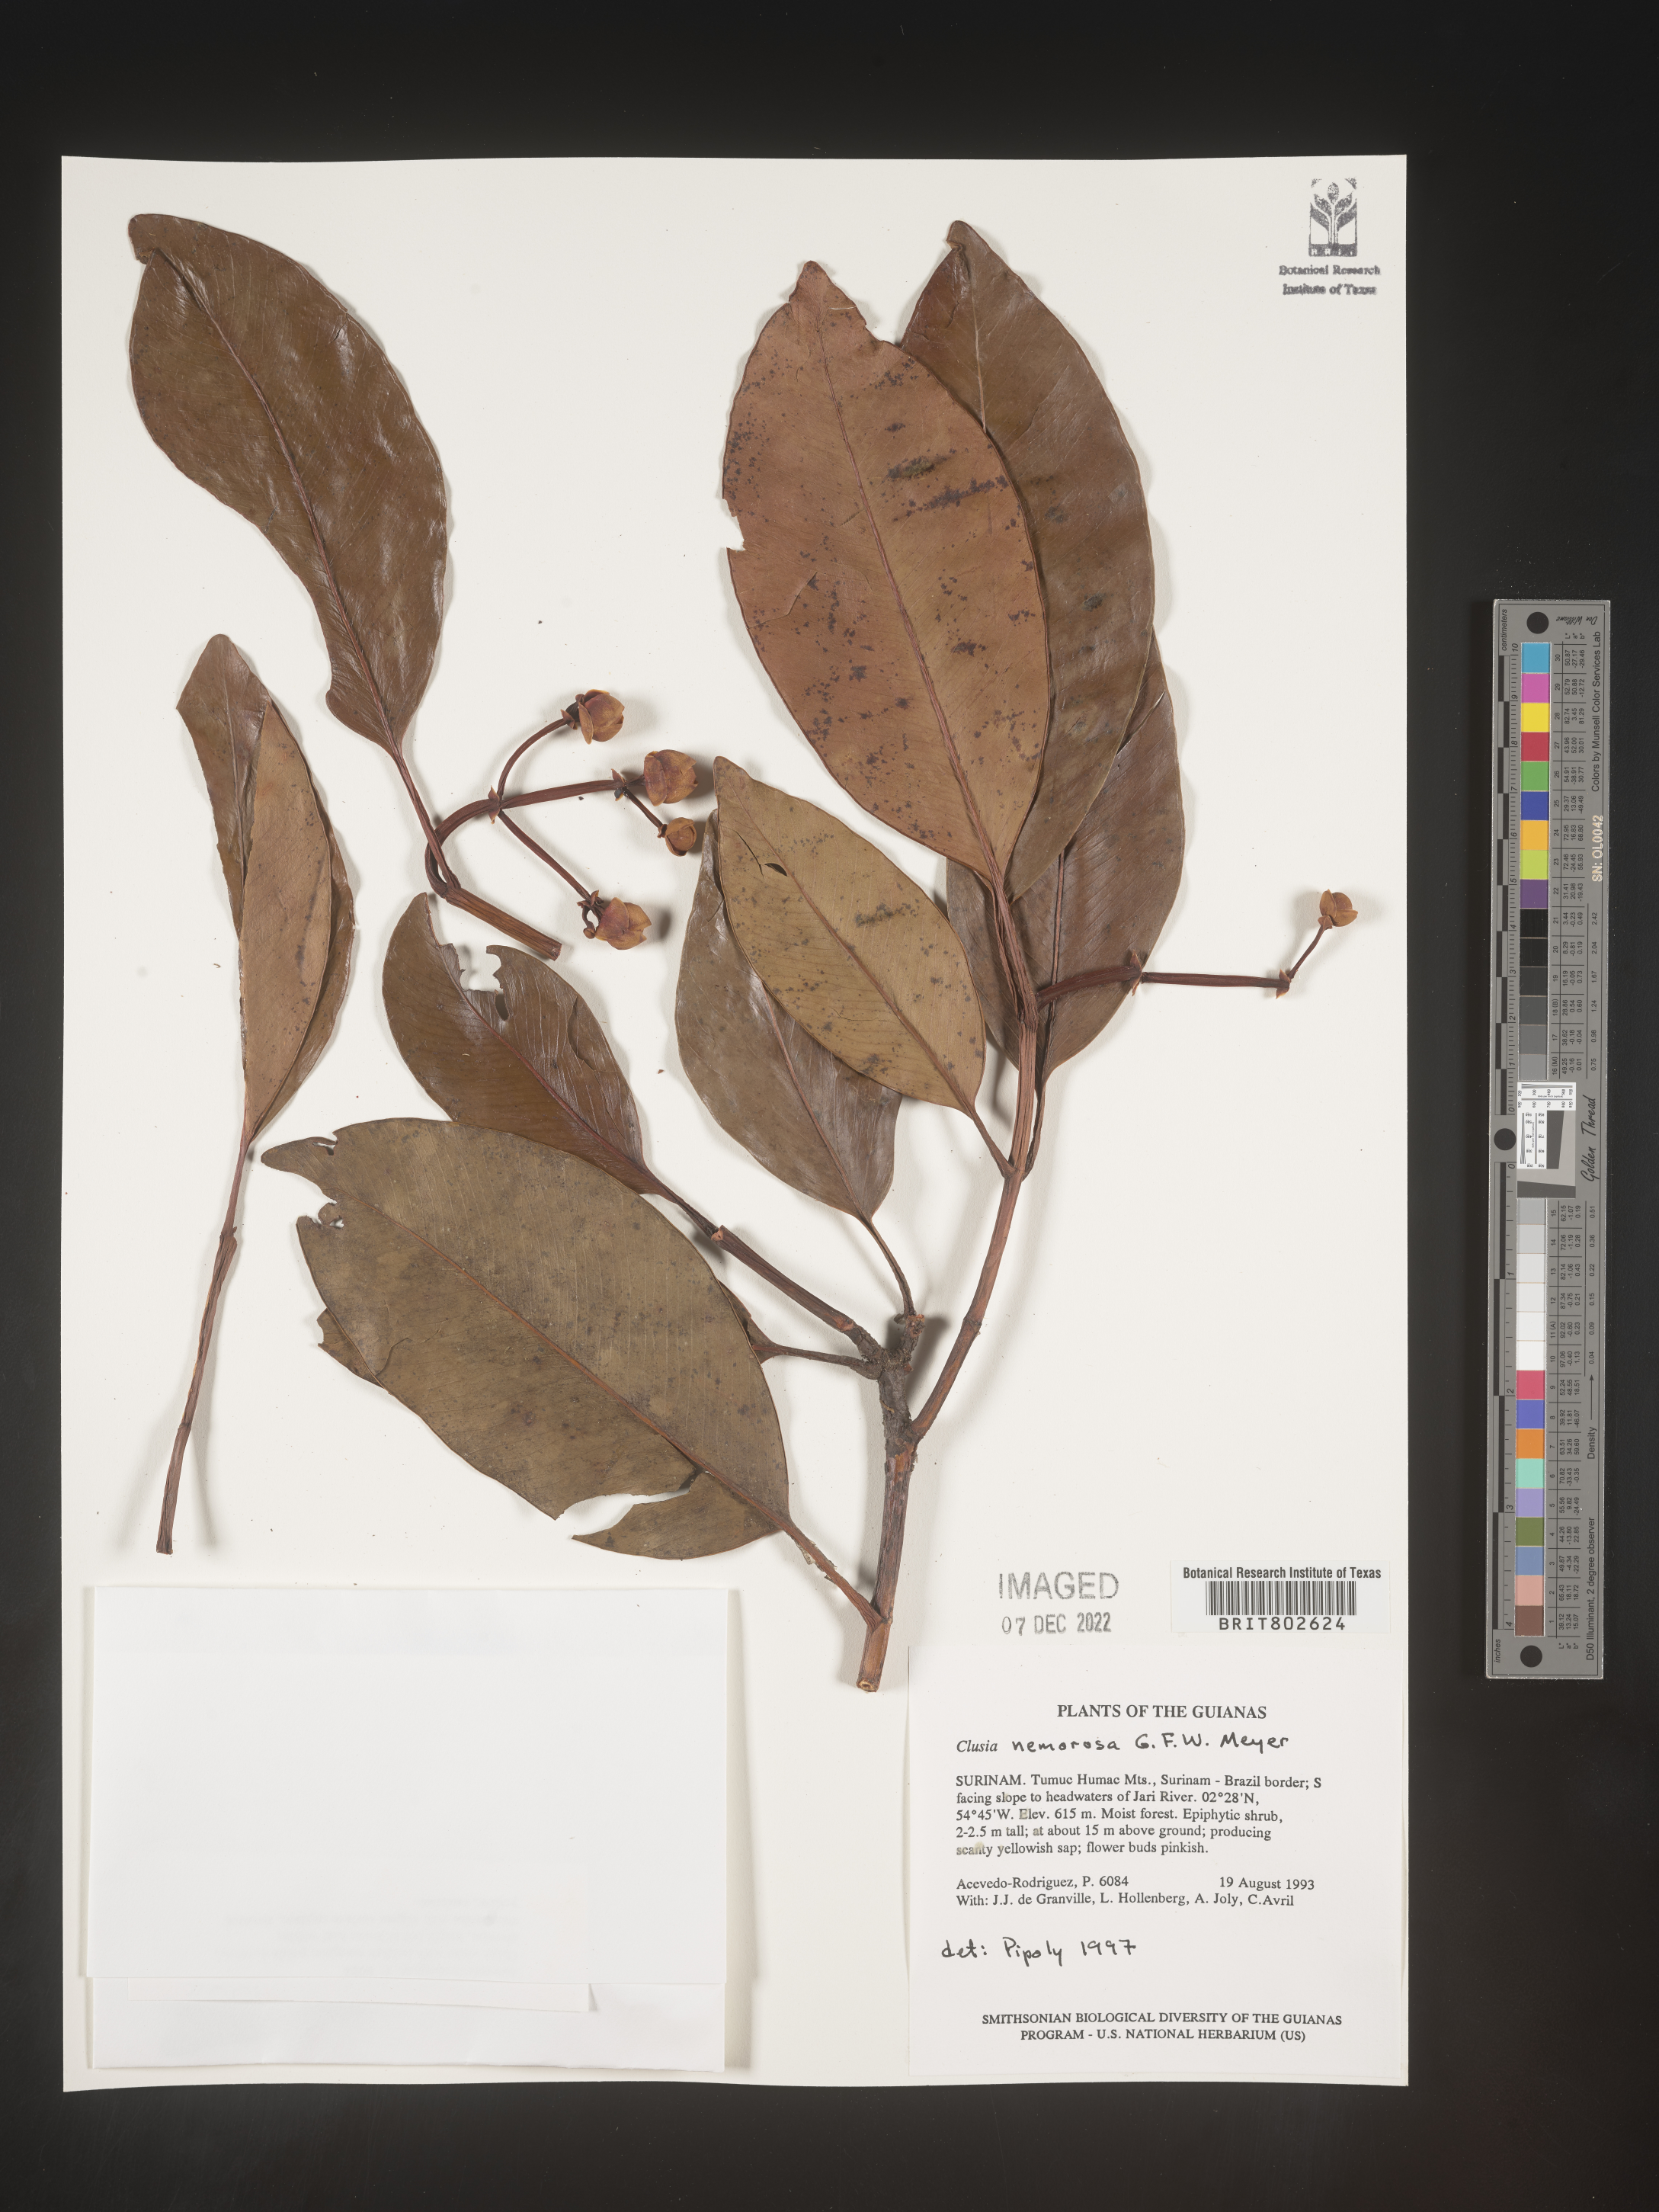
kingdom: Plantae
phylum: Tracheophyta
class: Magnoliopsida
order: Malpighiales
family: Clusiaceae
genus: Clusia
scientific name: Clusia nemorosa
